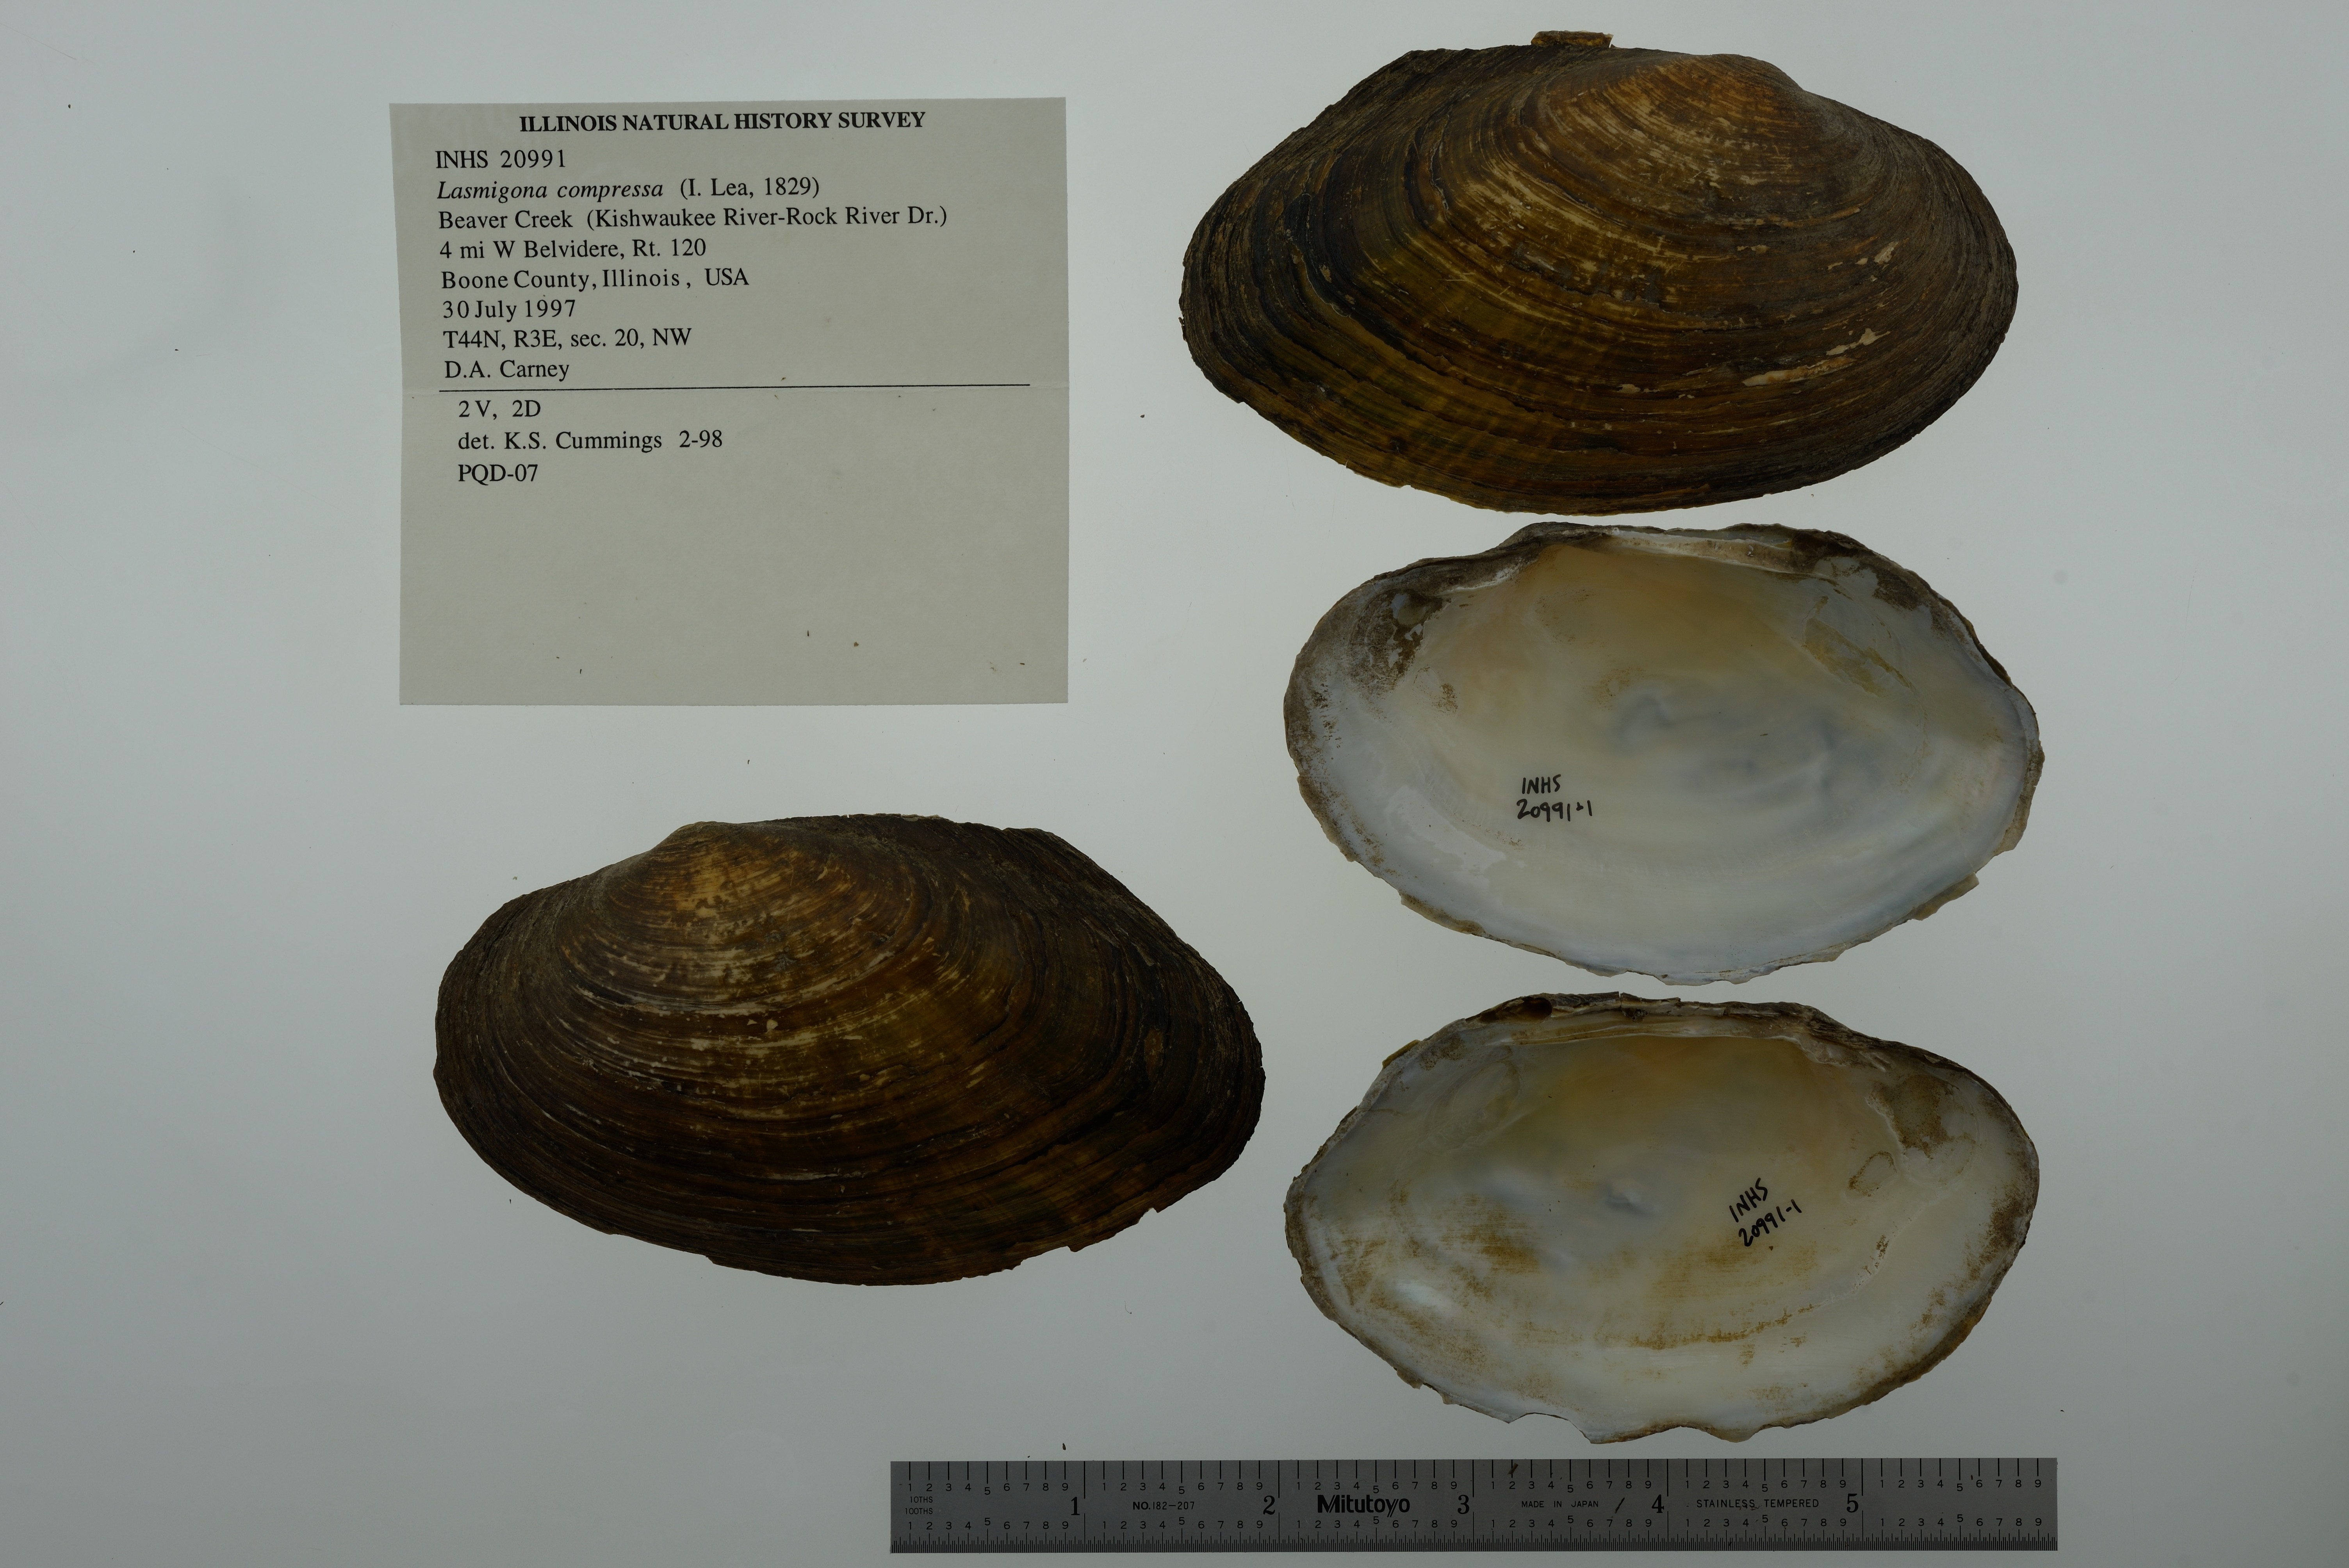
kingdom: Animalia
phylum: Mollusca
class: Bivalvia
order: Unionida
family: Unionidae
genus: Lasmigona
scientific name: Lasmigona compressa
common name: Creek heelsplitter
